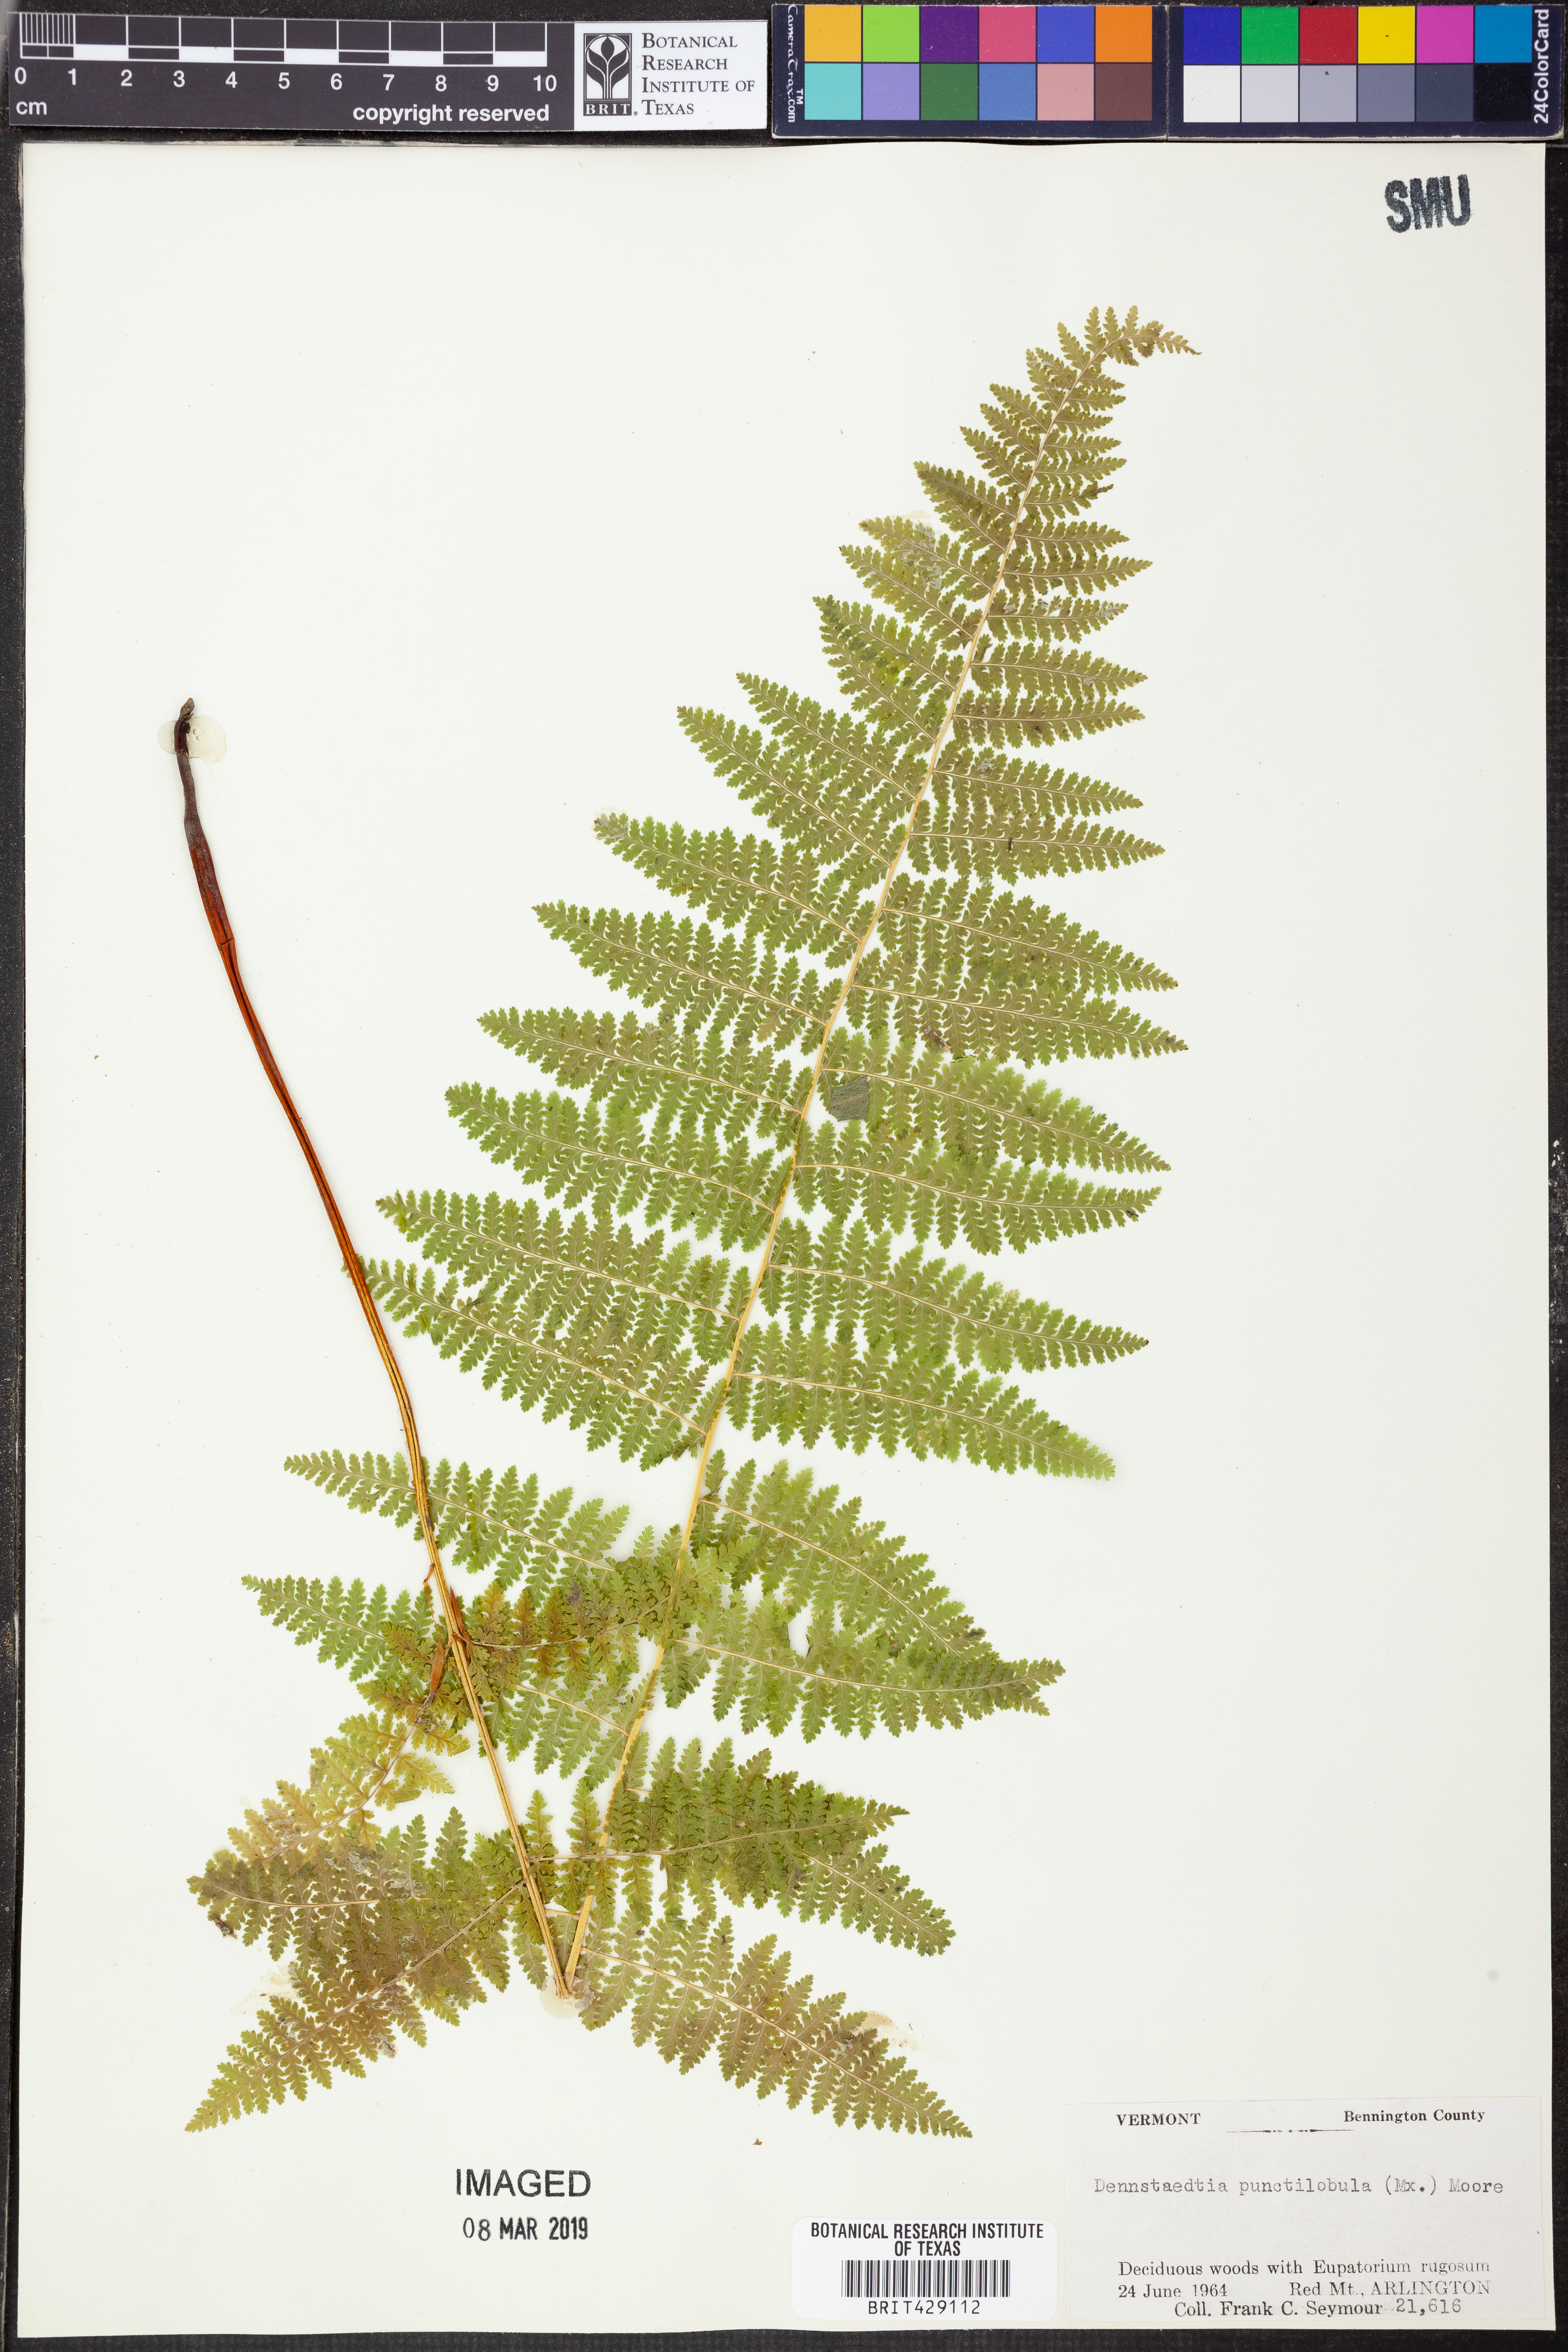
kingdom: Plantae
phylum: Tracheophyta
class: Polypodiopsida
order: Polypodiales
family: Dennstaedtiaceae
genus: Sitobolium
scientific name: Sitobolium punctilobum
